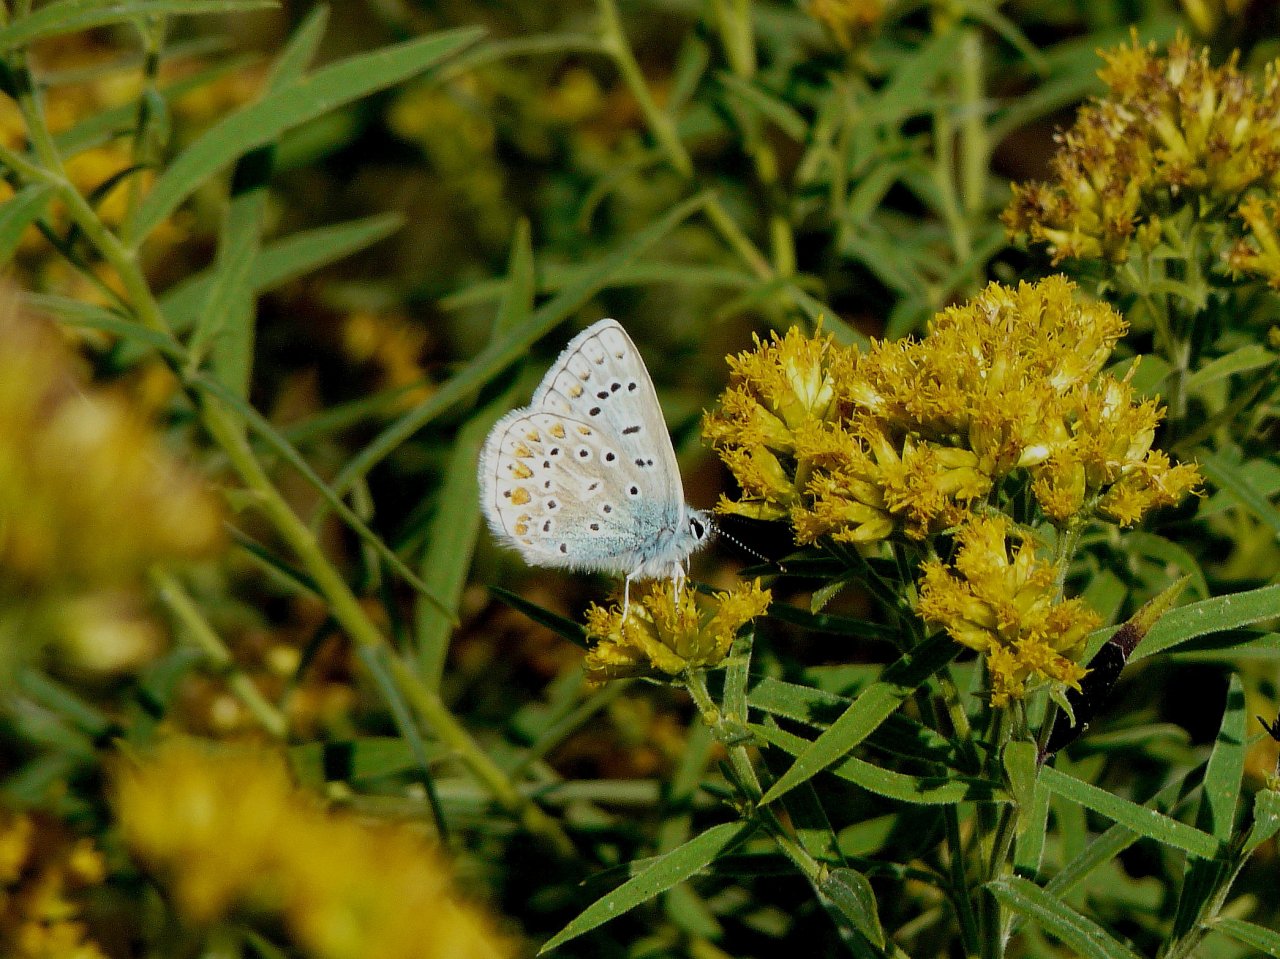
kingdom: Animalia
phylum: Arthropoda
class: Insecta
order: Lepidoptera
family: Lycaenidae
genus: Polyommatus
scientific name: Polyommatus icarus
